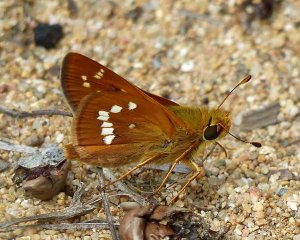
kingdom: Animalia
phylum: Arthropoda
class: Insecta
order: Lepidoptera
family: Hesperiidae
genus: Hesperia
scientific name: Hesperia leonardus
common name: Leonard's Skipper
